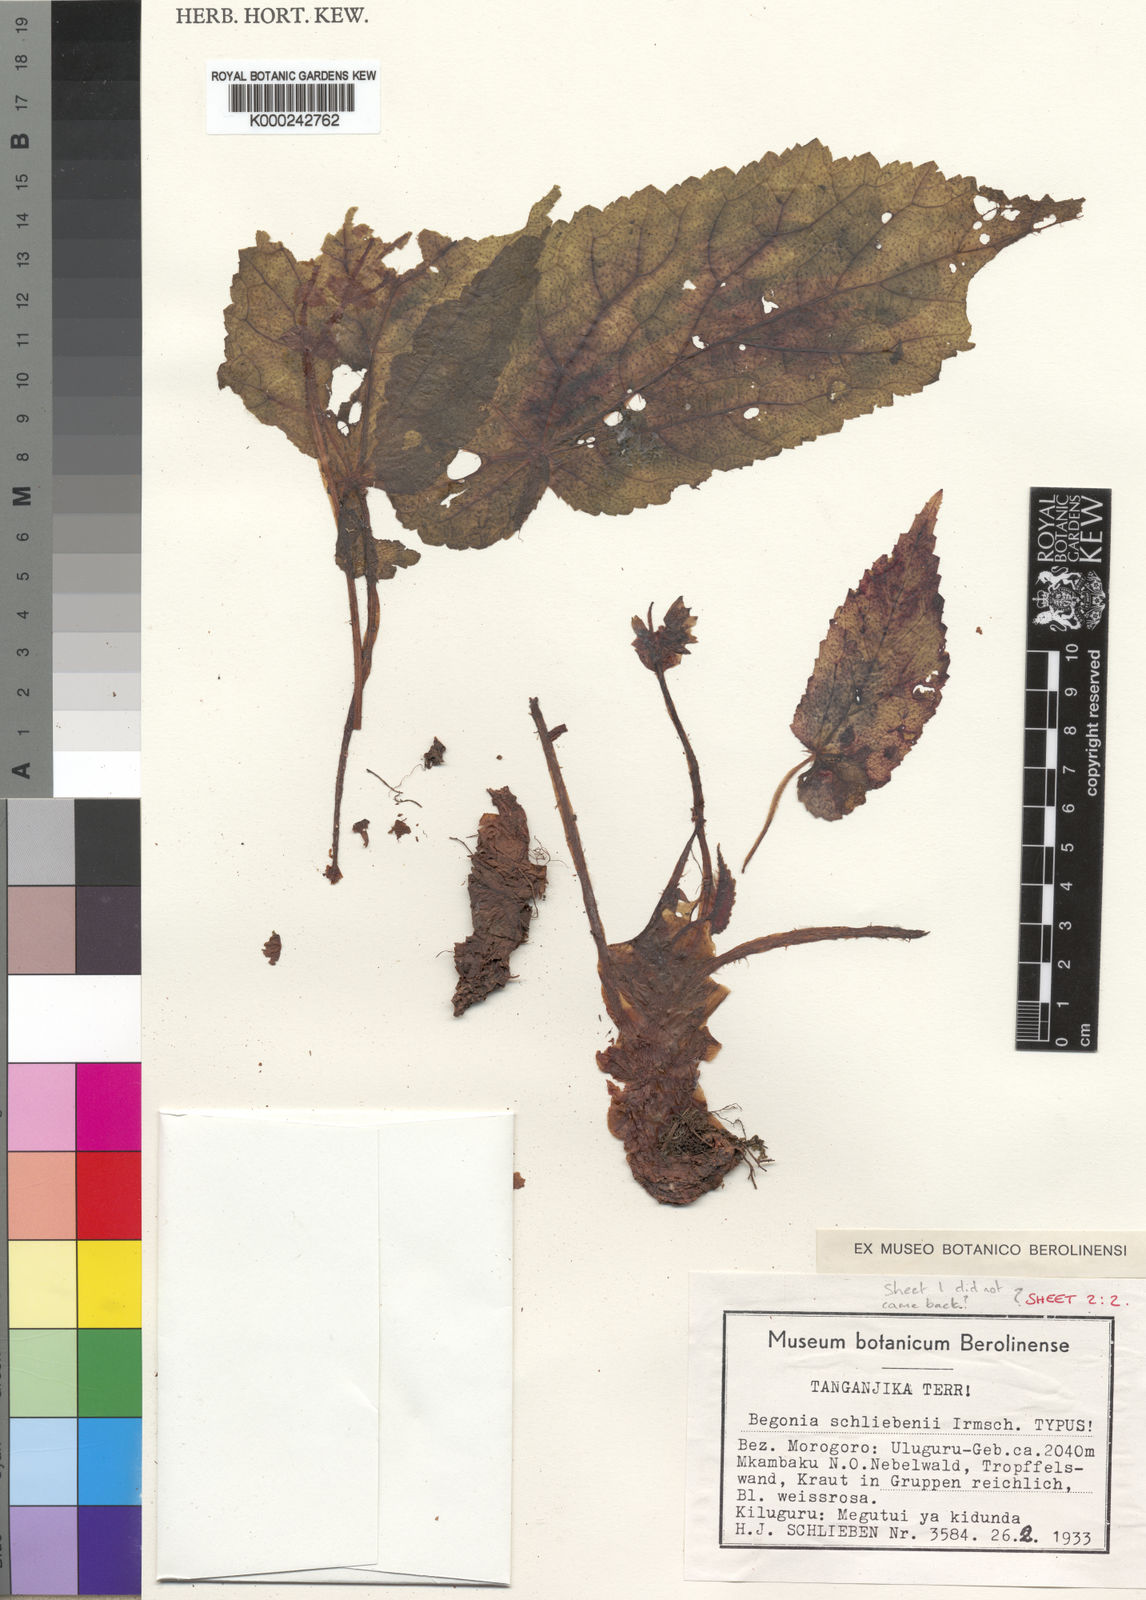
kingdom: Plantae
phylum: Tracheophyta
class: Magnoliopsida
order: Cucurbitales
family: Begoniaceae
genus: Begonia
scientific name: Begonia schliebenii
